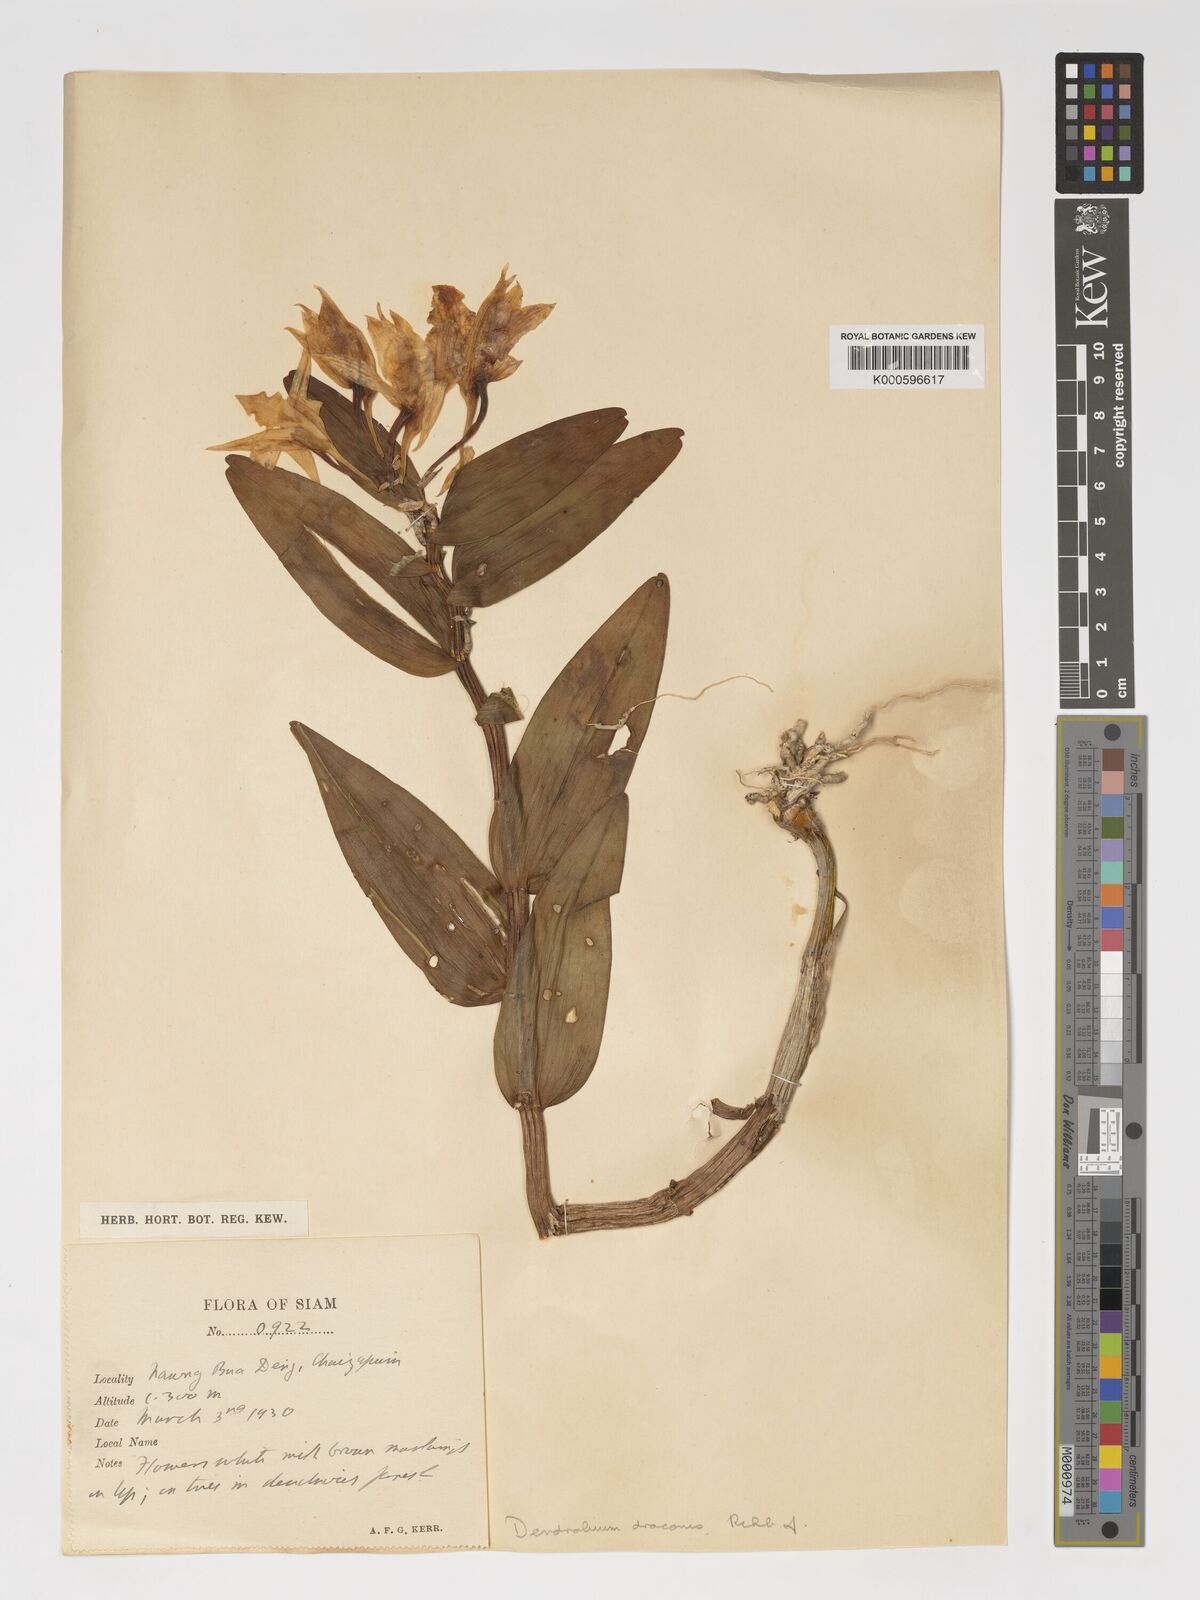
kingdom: Plantae
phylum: Tracheophyta
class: Liliopsida
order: Asparagales
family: Orchidaceae
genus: Dendrobium
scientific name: Dendrobium draconis
